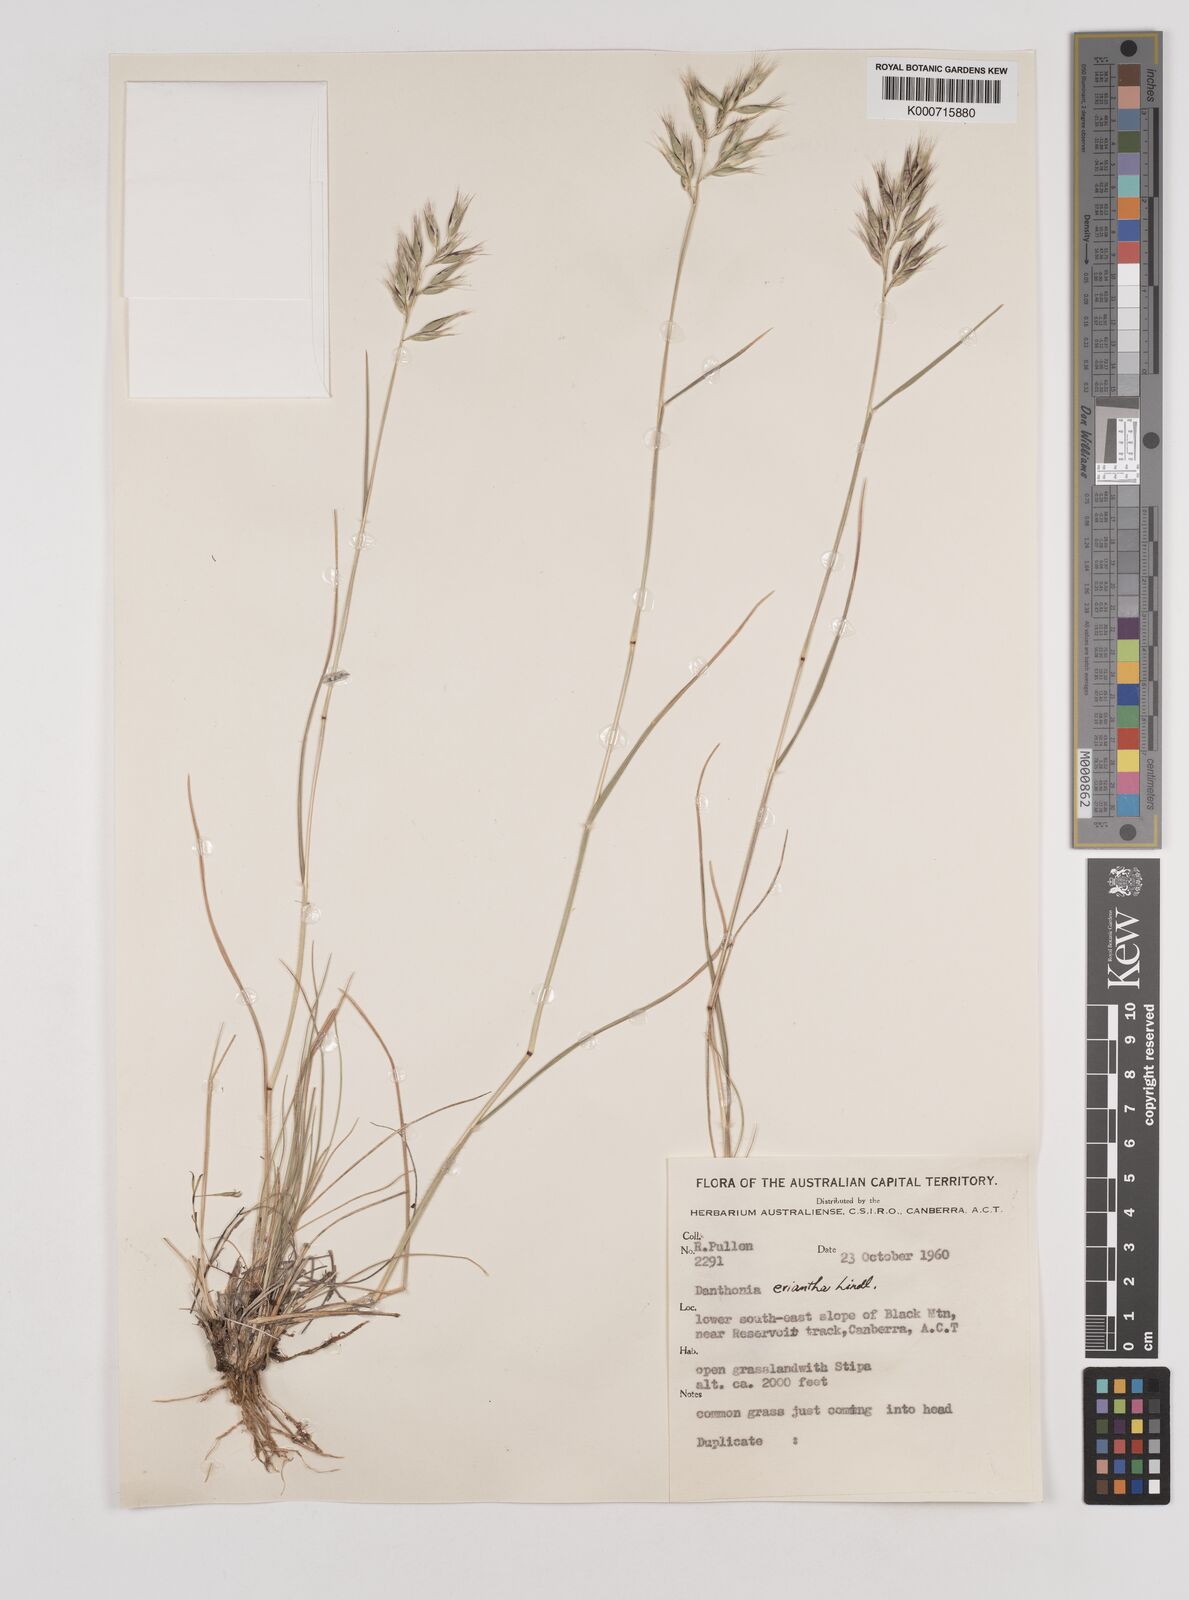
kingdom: Plantae
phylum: Tracheophyta
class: Liliopsida
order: Poales
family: Poaceae
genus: Rytidosperma
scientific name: Rytidosperma erianthum
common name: Hill wallaby grass
